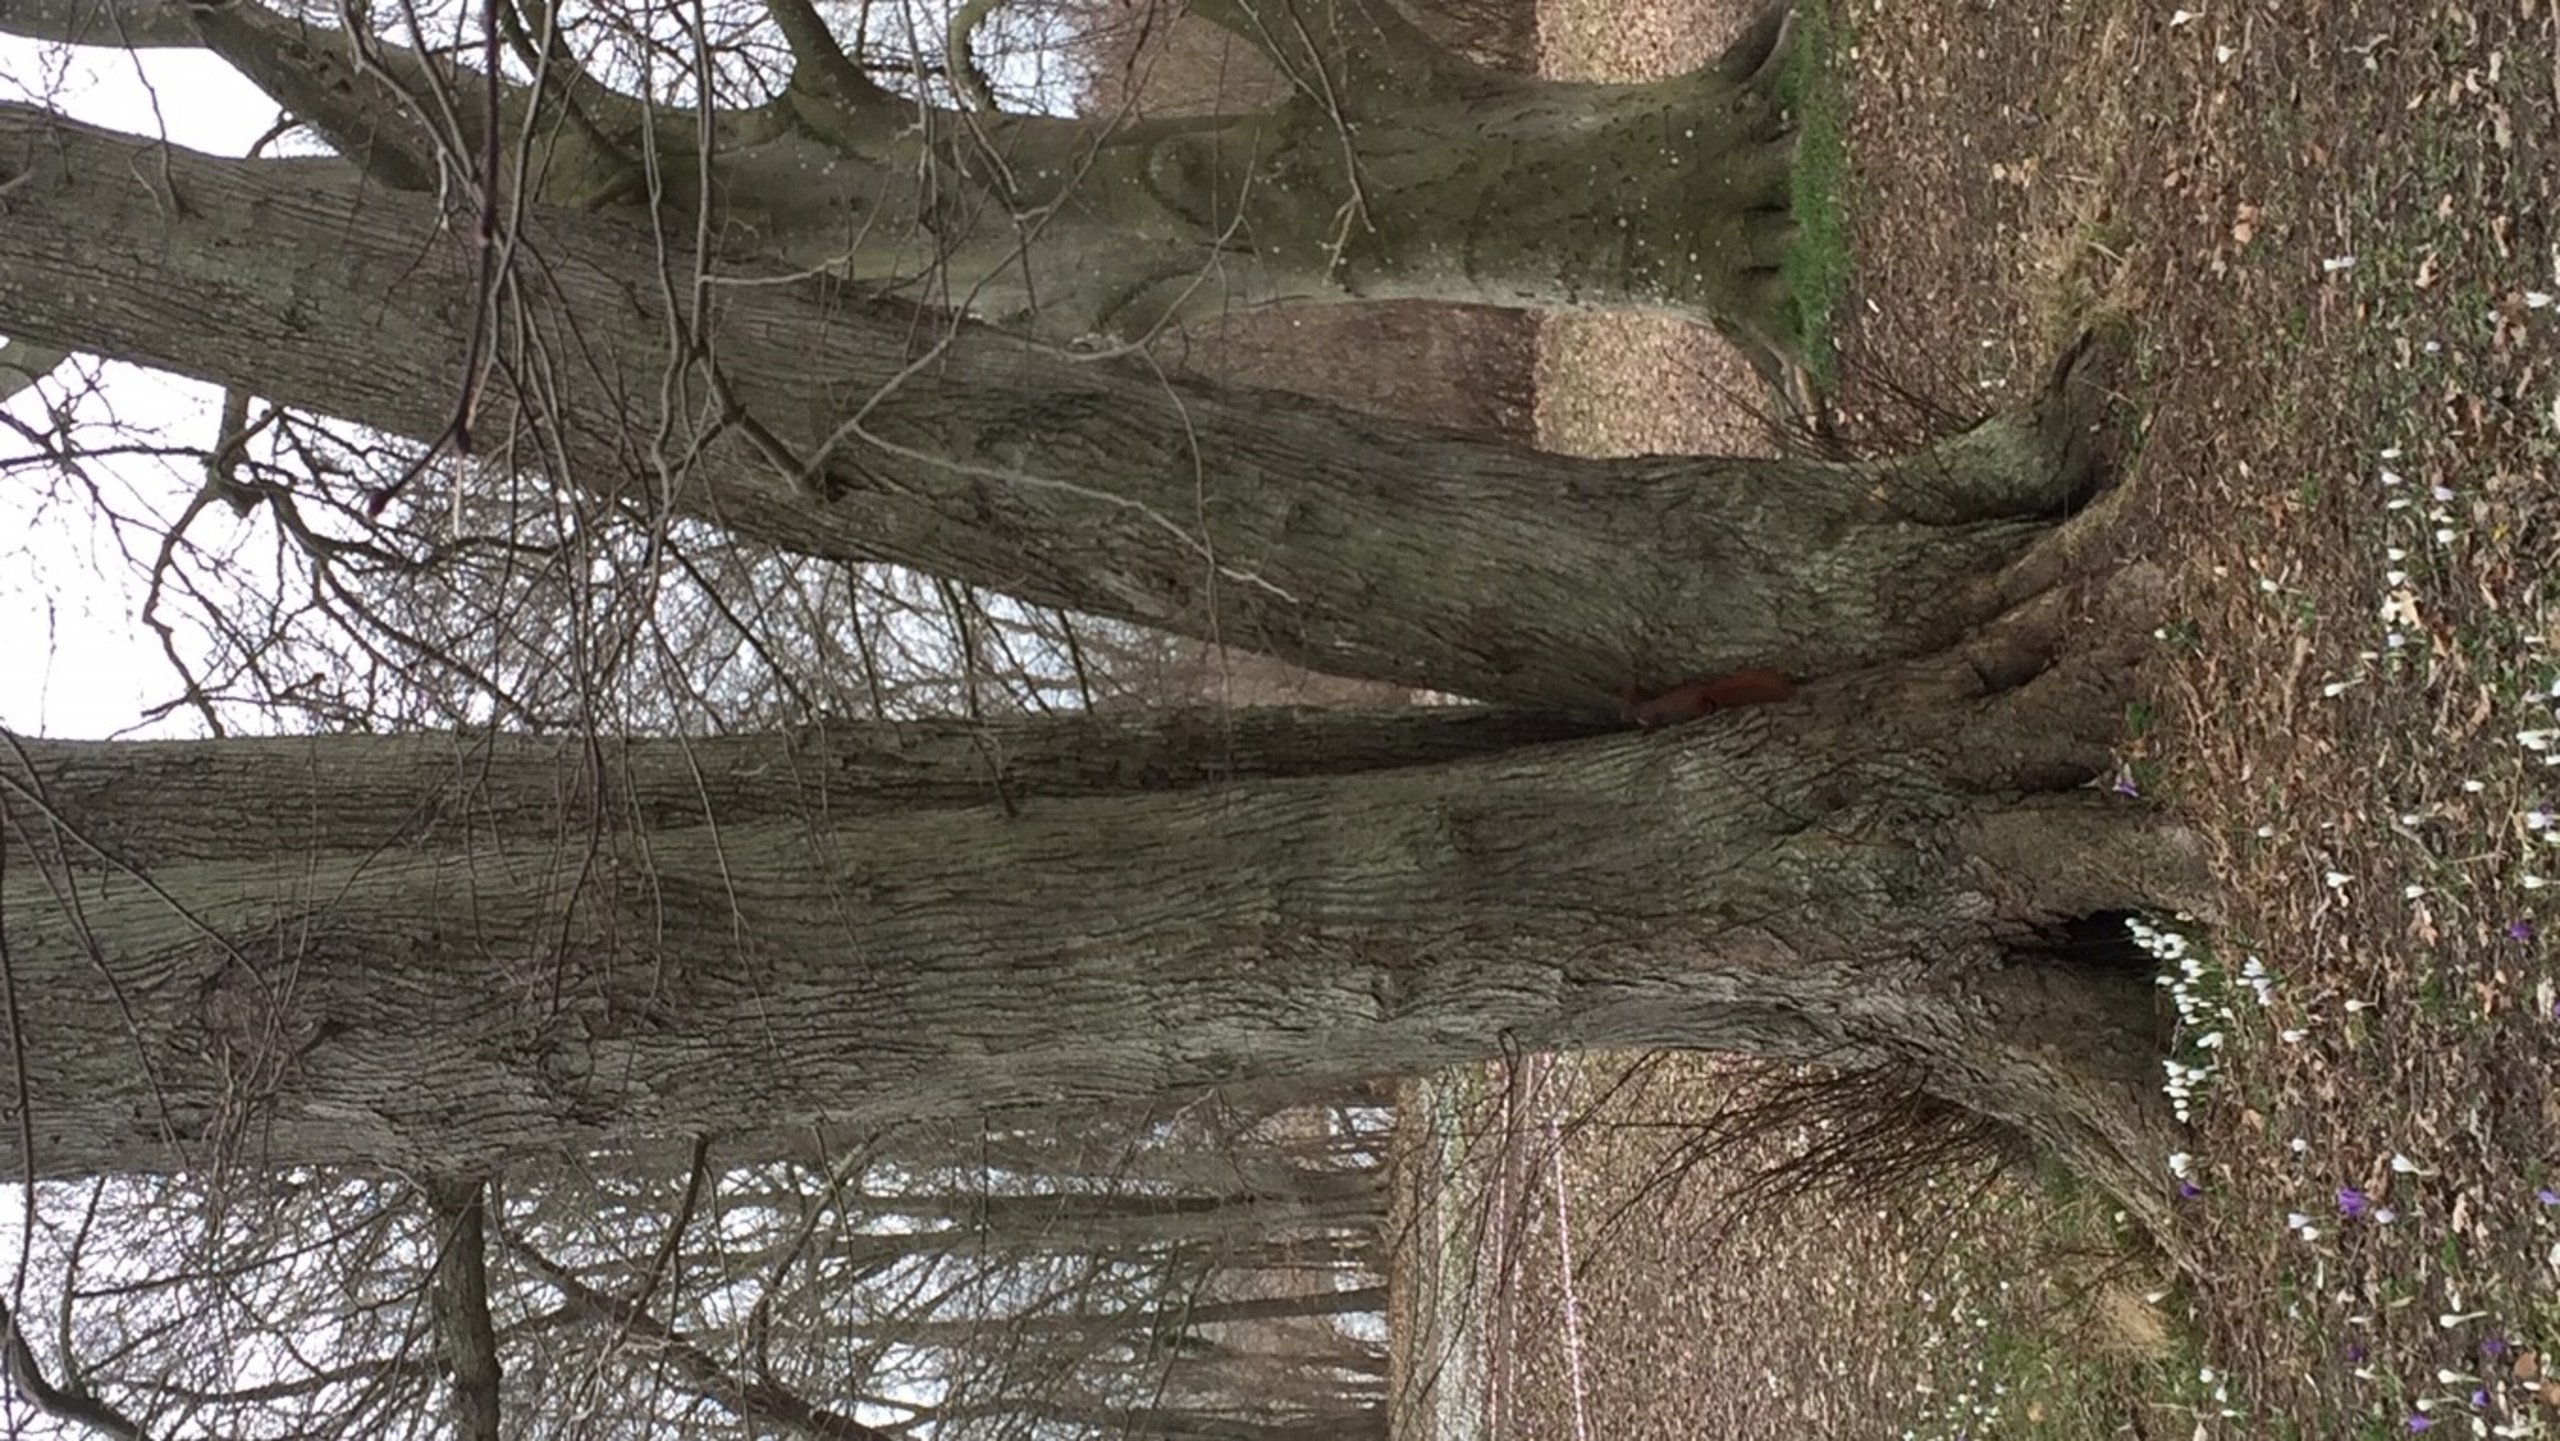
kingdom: Animalia
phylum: Chordata
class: Mammalia
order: Rodentia
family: Sciuridae
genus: Sciurus
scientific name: Sciurus vulgaris
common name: Egern
